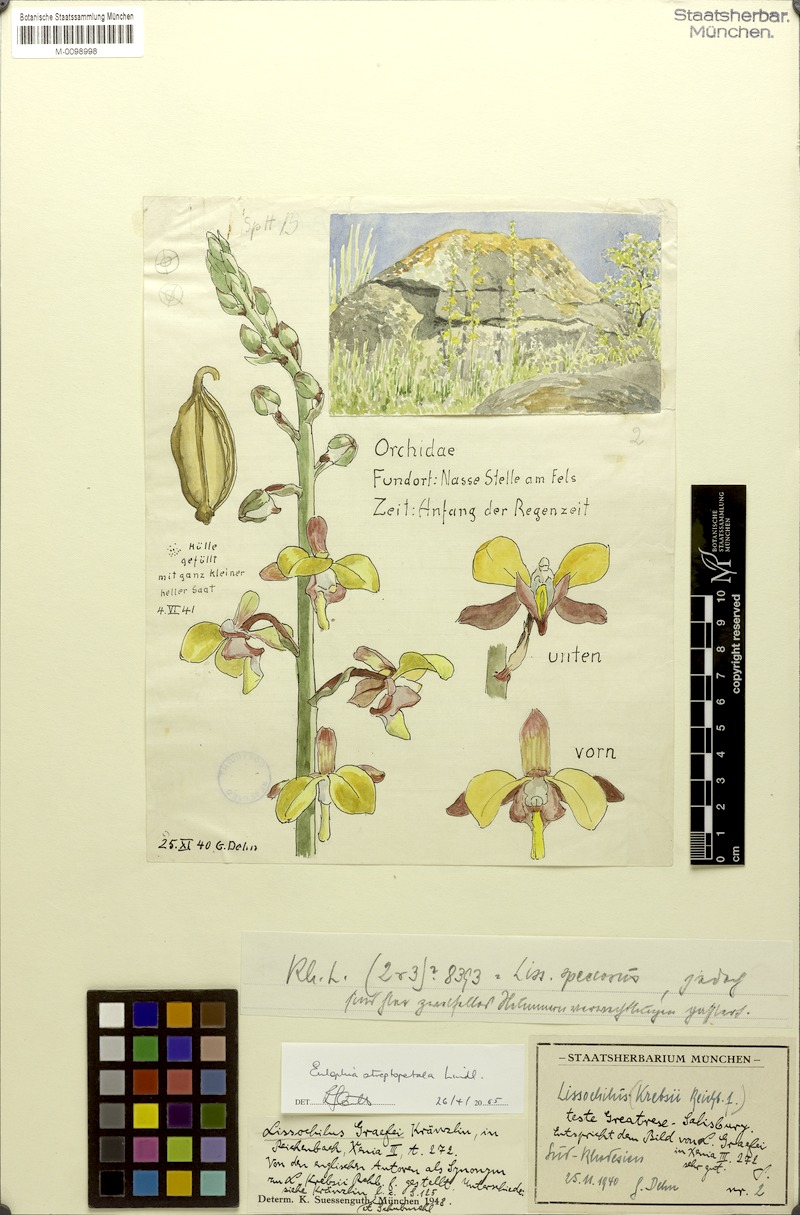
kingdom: Plantae
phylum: Tracheophyta
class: Liliopsida
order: Asparagales
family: Orchidaceae
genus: Eulophia
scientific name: Eulophia streptopetala
